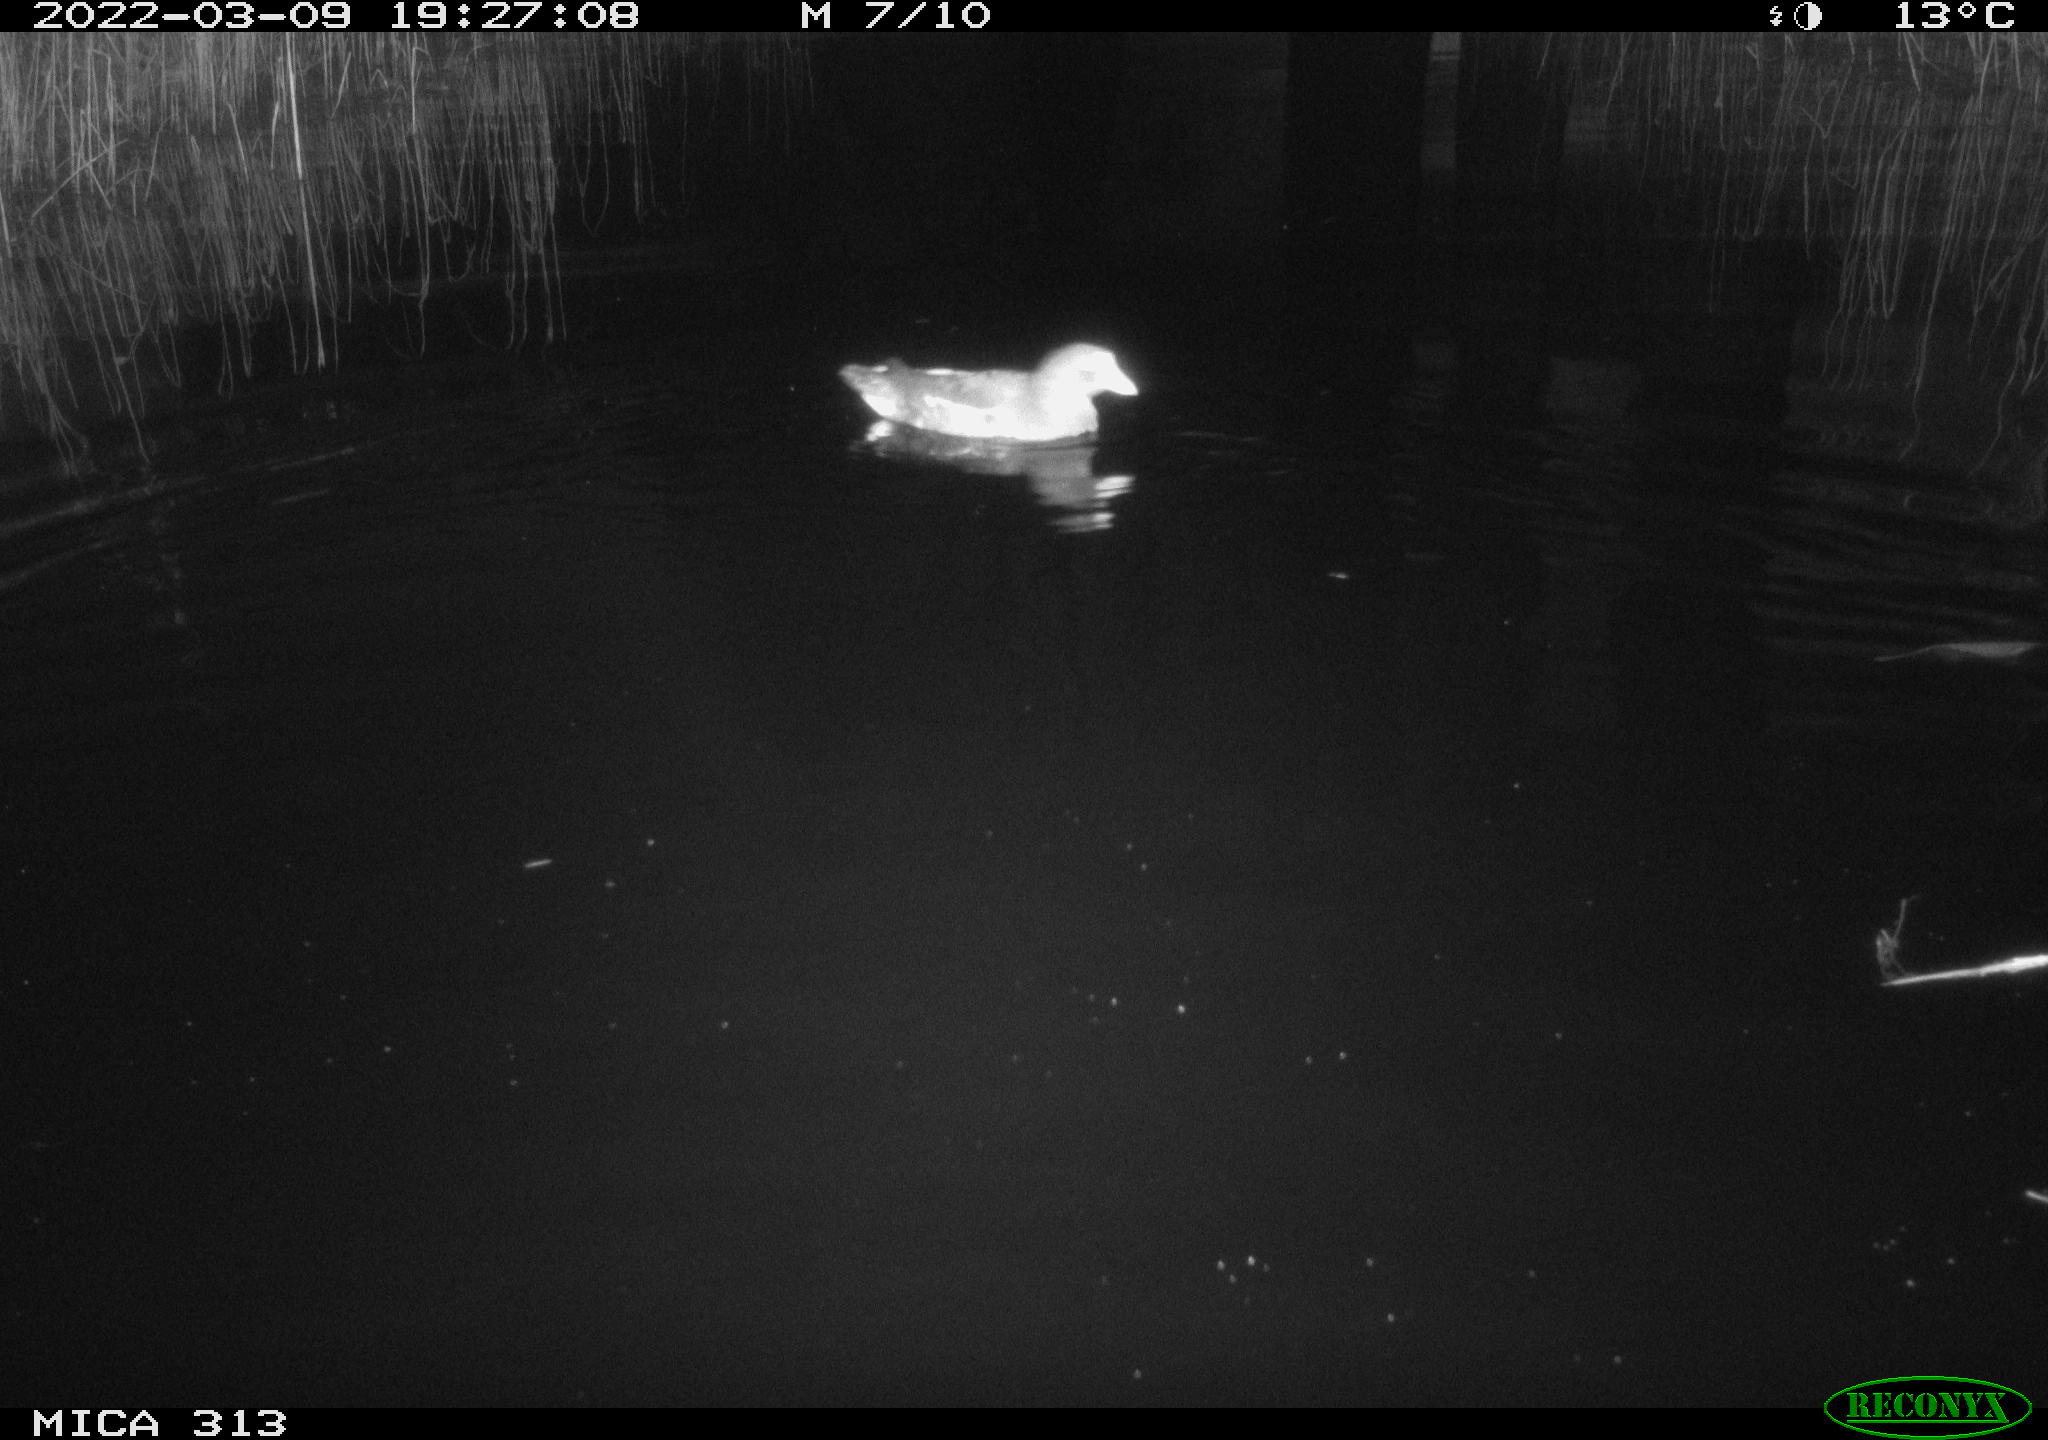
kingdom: Animalia
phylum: Chordata
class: Aves
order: Gruiformes
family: Rallidae
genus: Gallinula
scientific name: Gallinula chloropus
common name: Common moorhen
